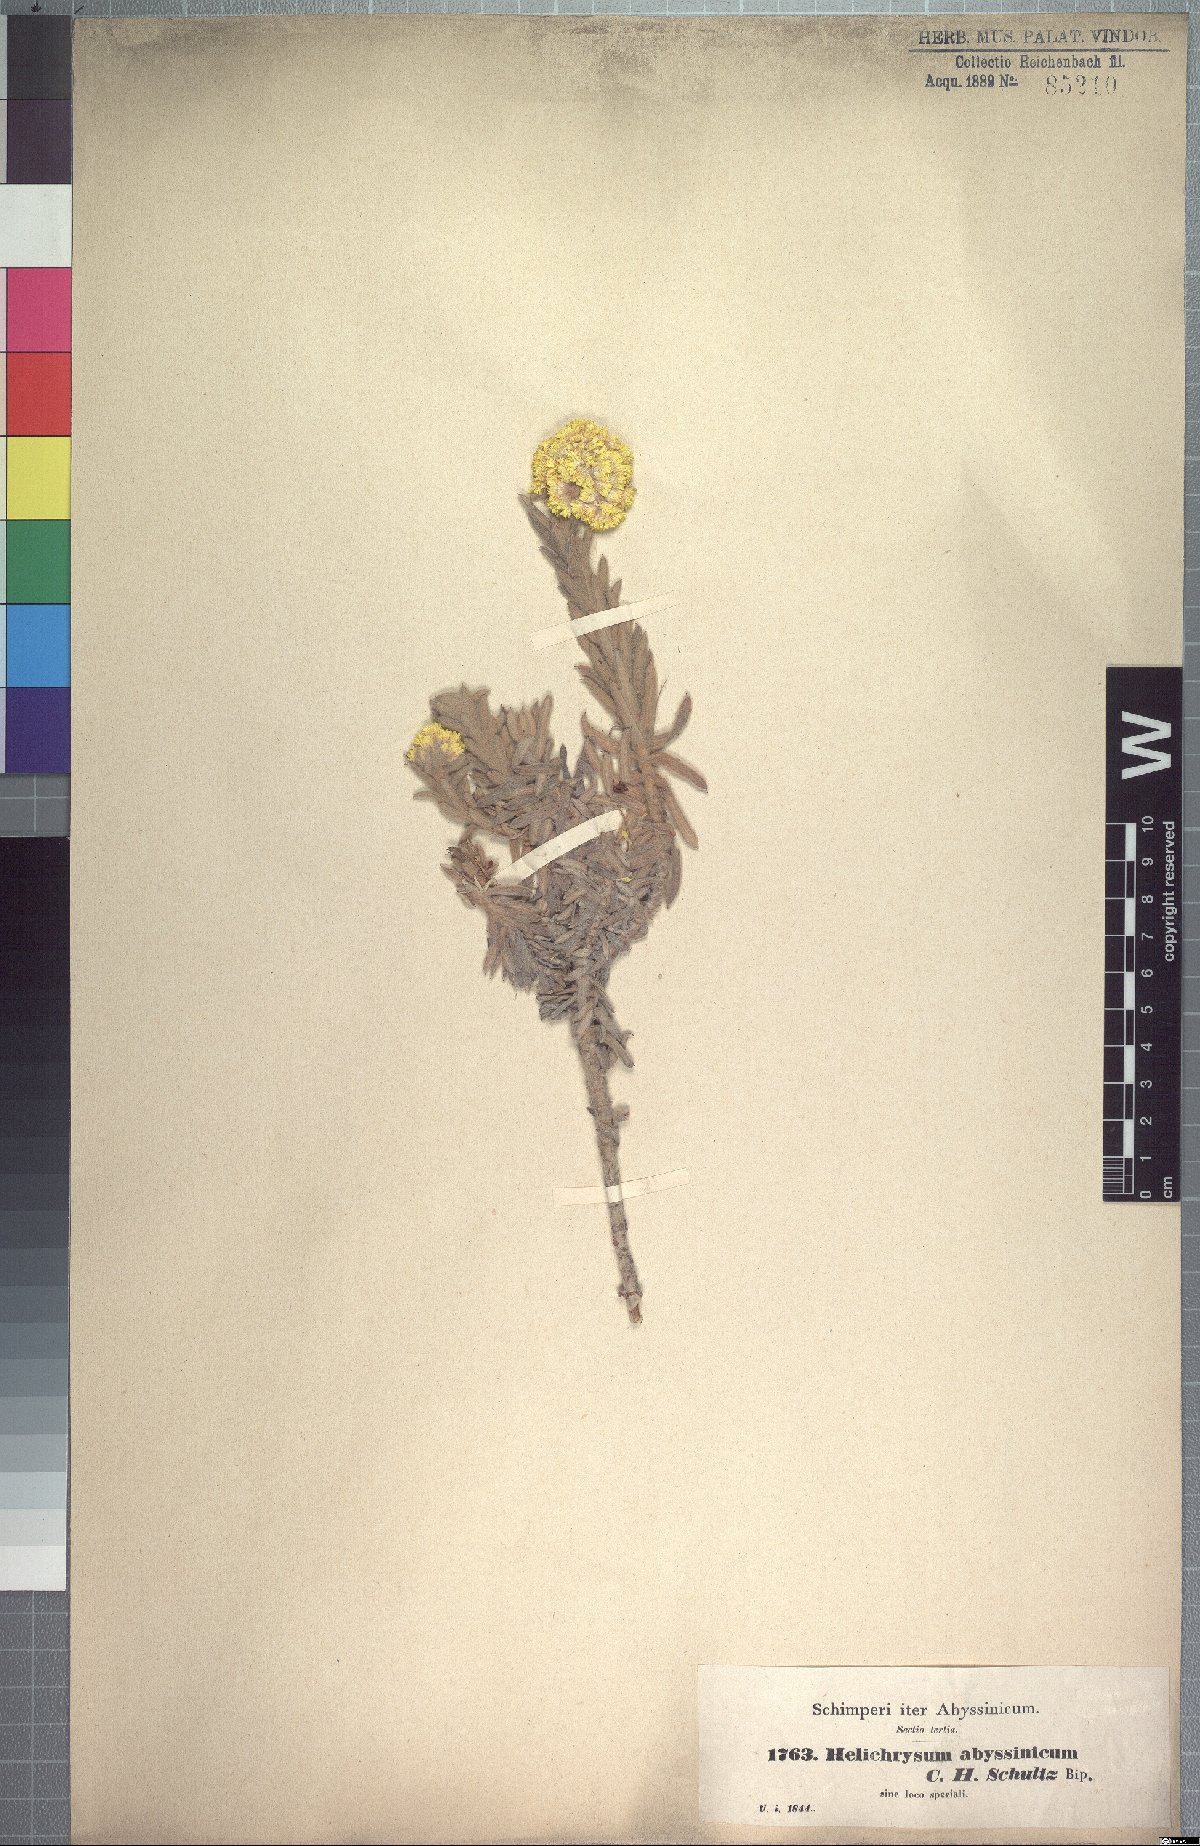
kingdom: Plantae
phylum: Tracheophyta
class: Magnoliopsida
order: Asterales
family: Asteraceae
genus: Helichrysum
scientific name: Helichrysum splendidum
